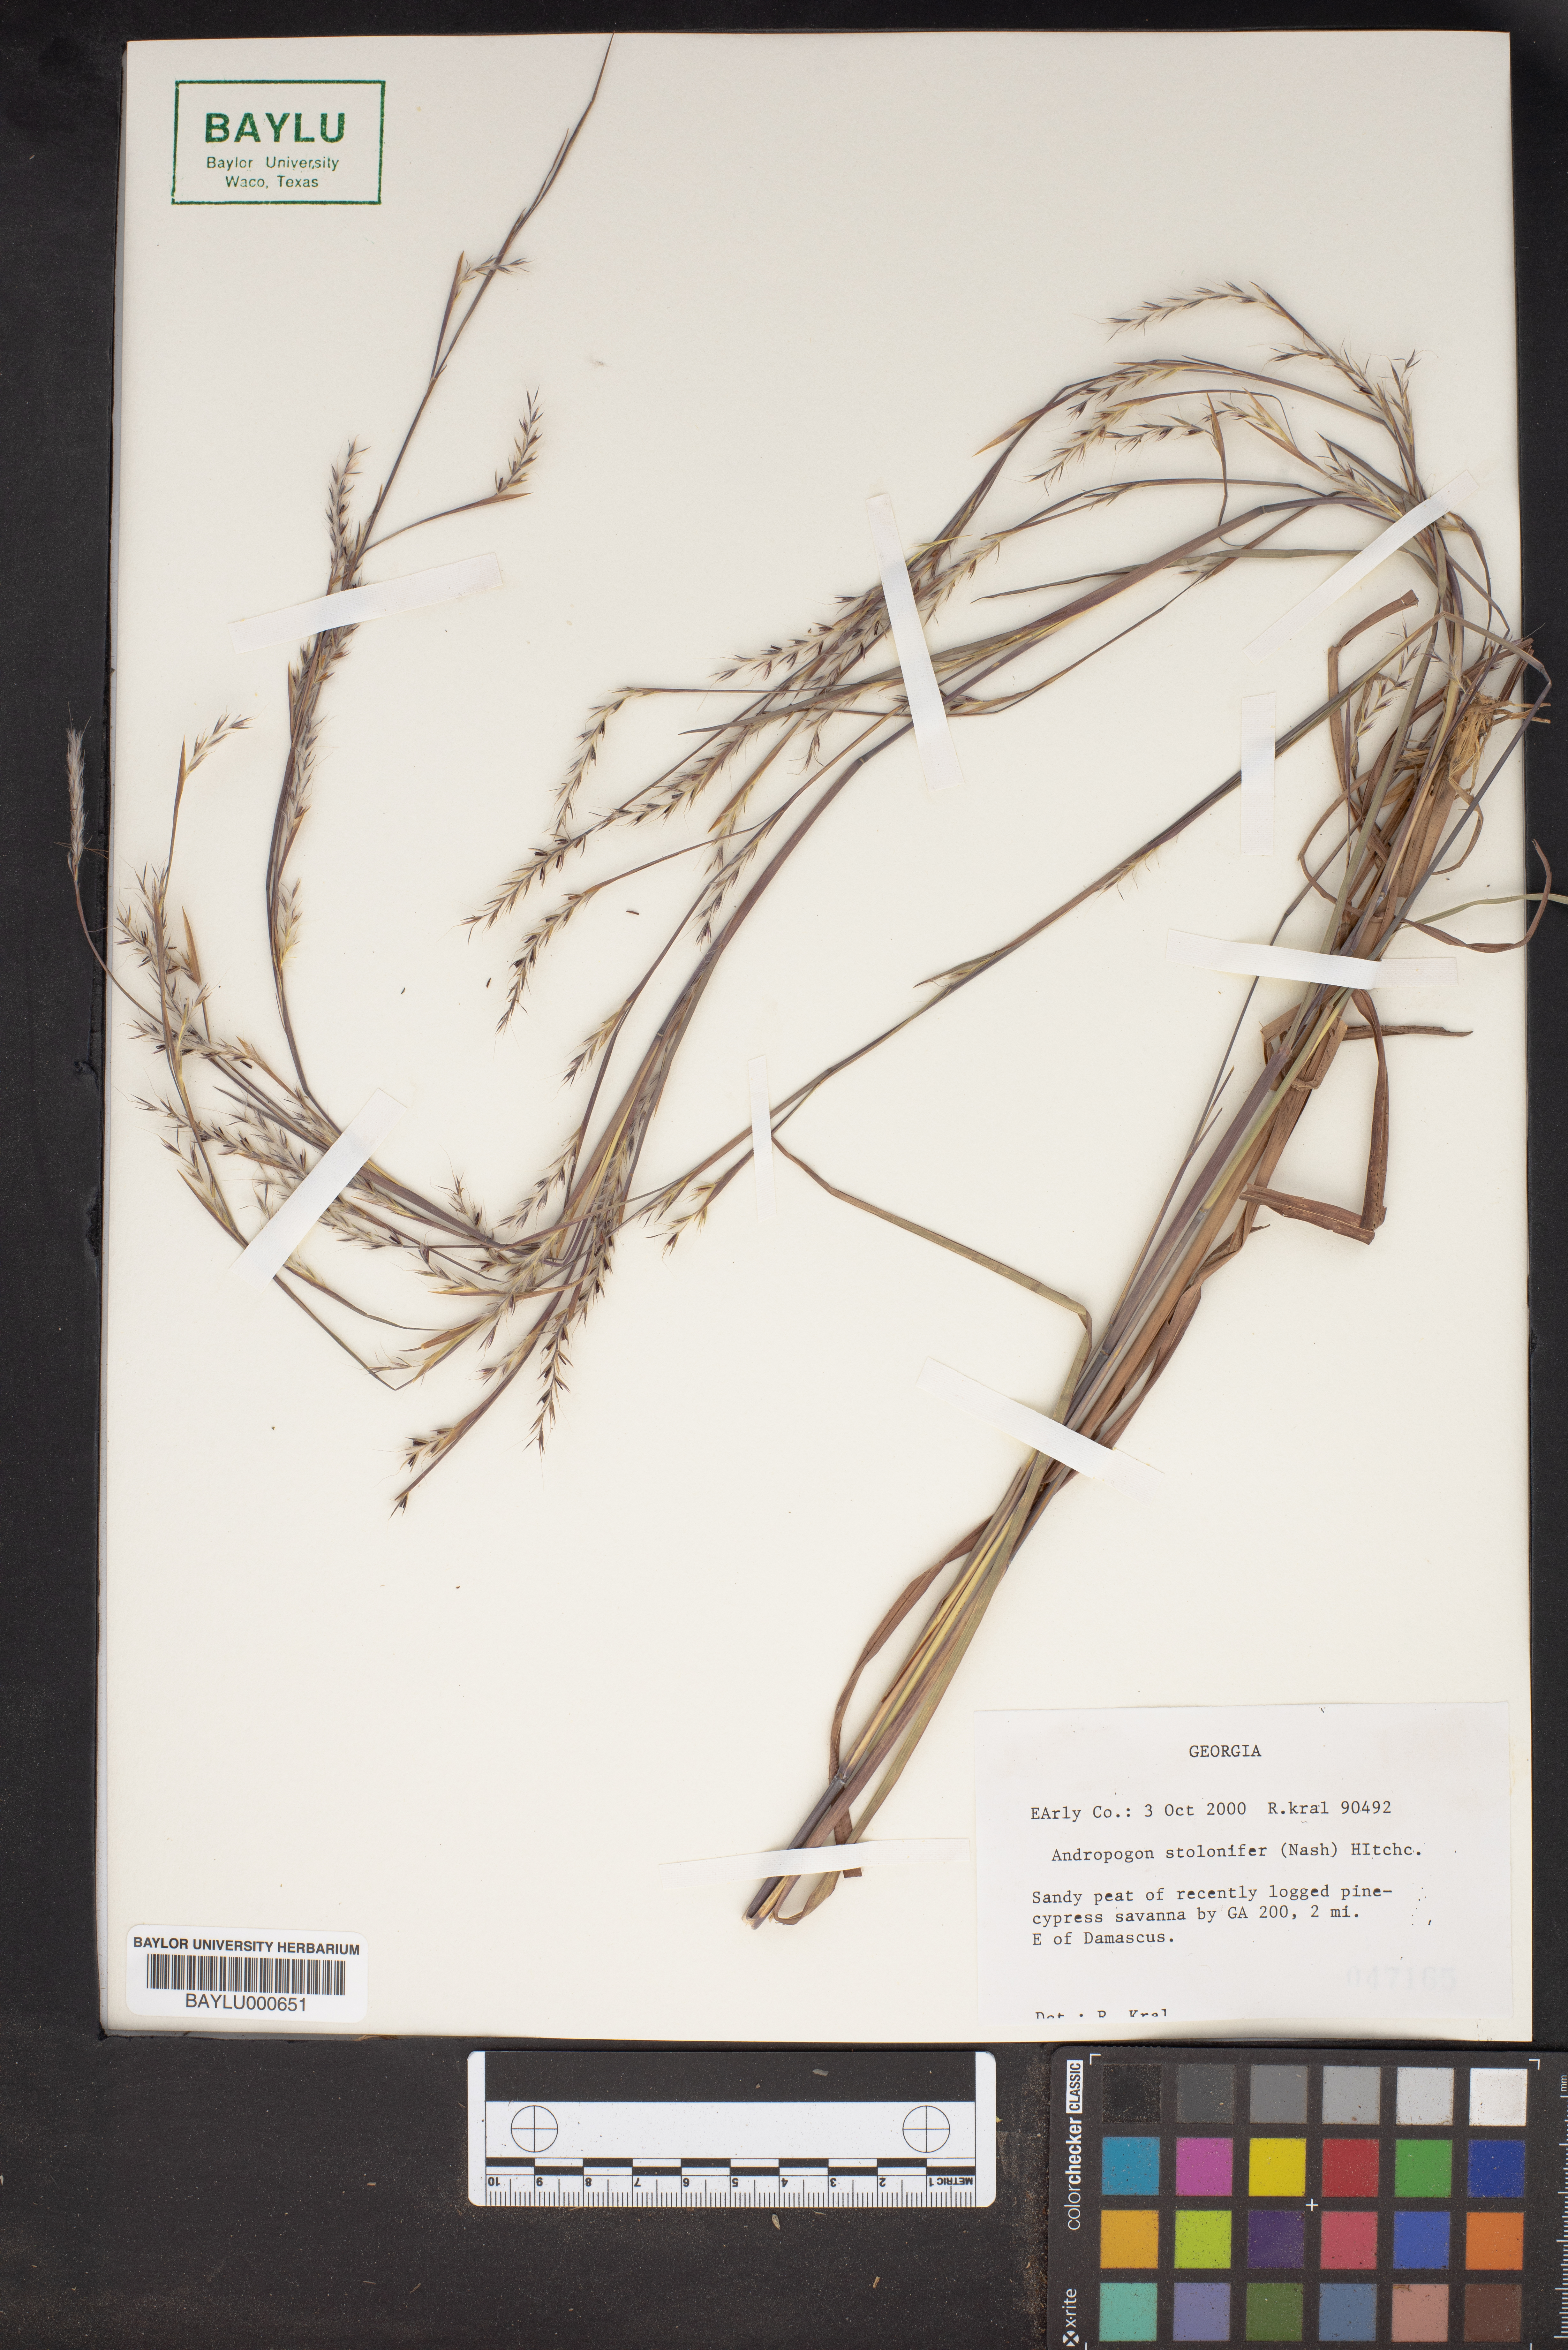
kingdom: Plantae
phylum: Tracheophyta
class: Liliopsida
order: Poales
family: Poaceae
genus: Andropogon
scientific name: Andropogon stolonifer
